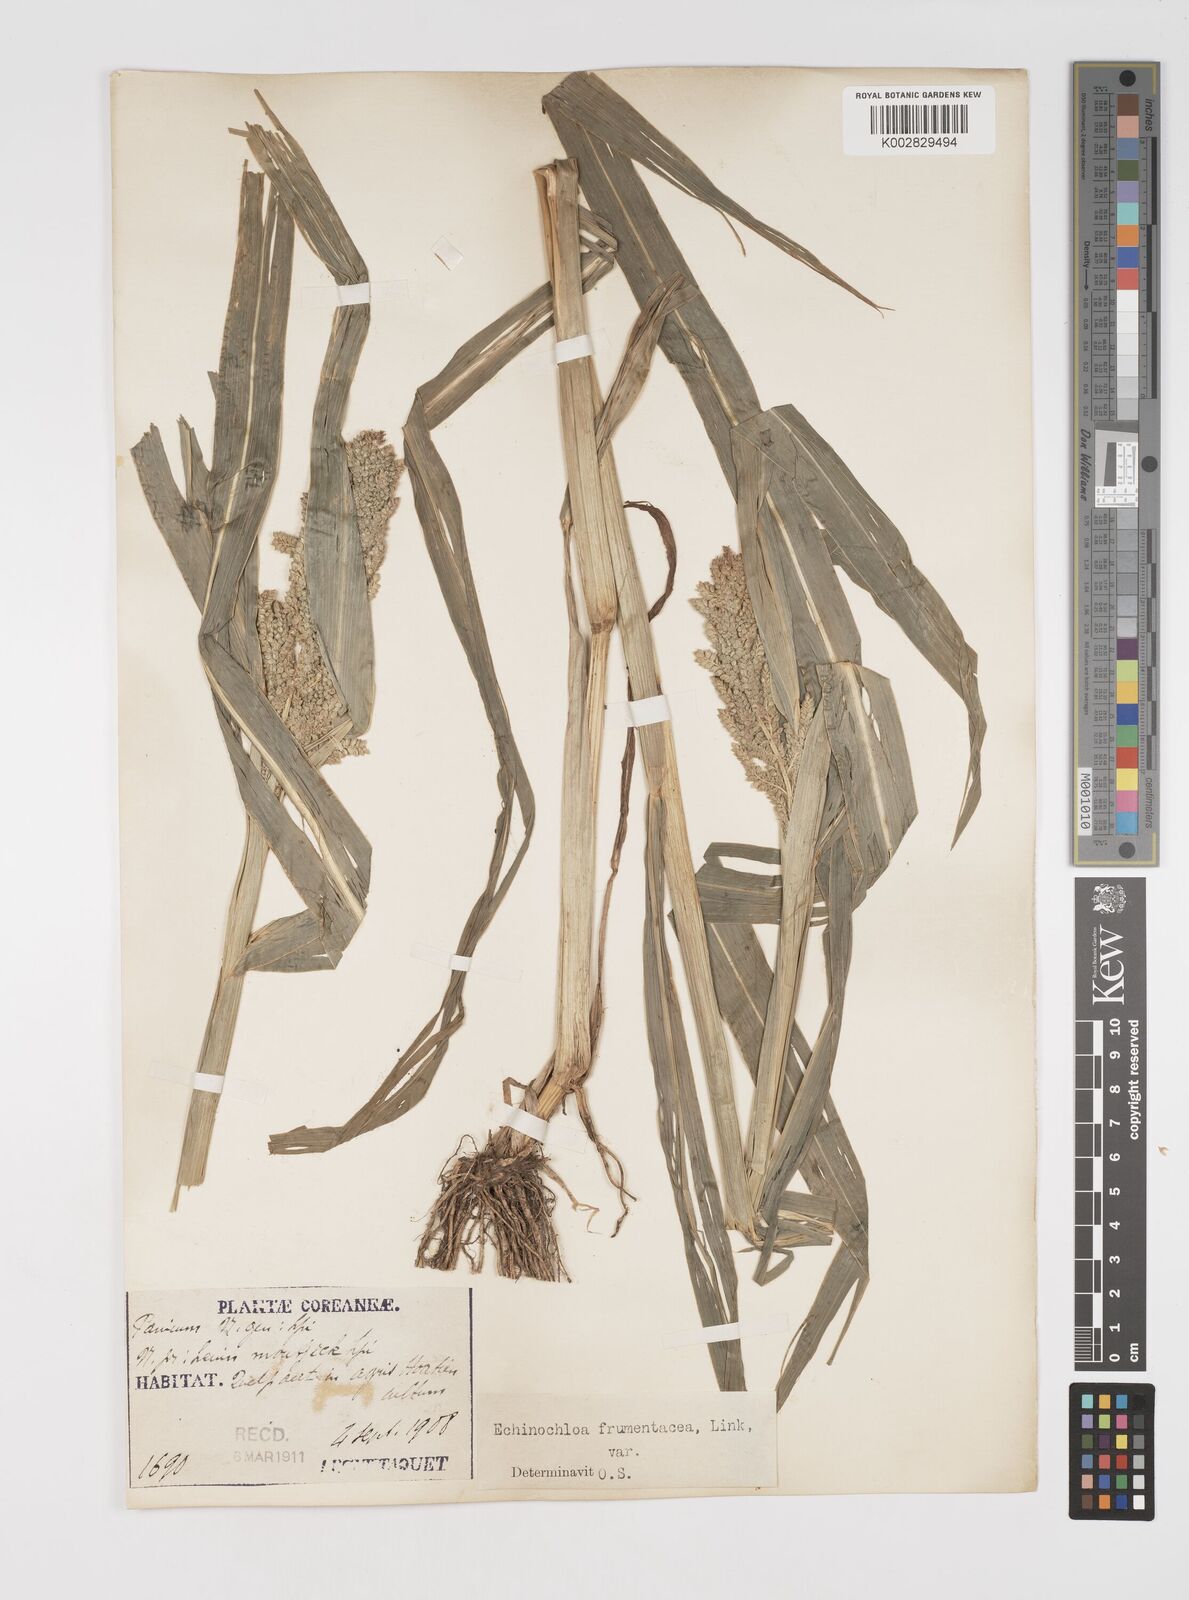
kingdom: Plantae
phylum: Tracheophyta
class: Liliopsida
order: Poales
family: Poaceae
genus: Echinochloa
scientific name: Echinochloa crus-galli
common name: Cockspur
